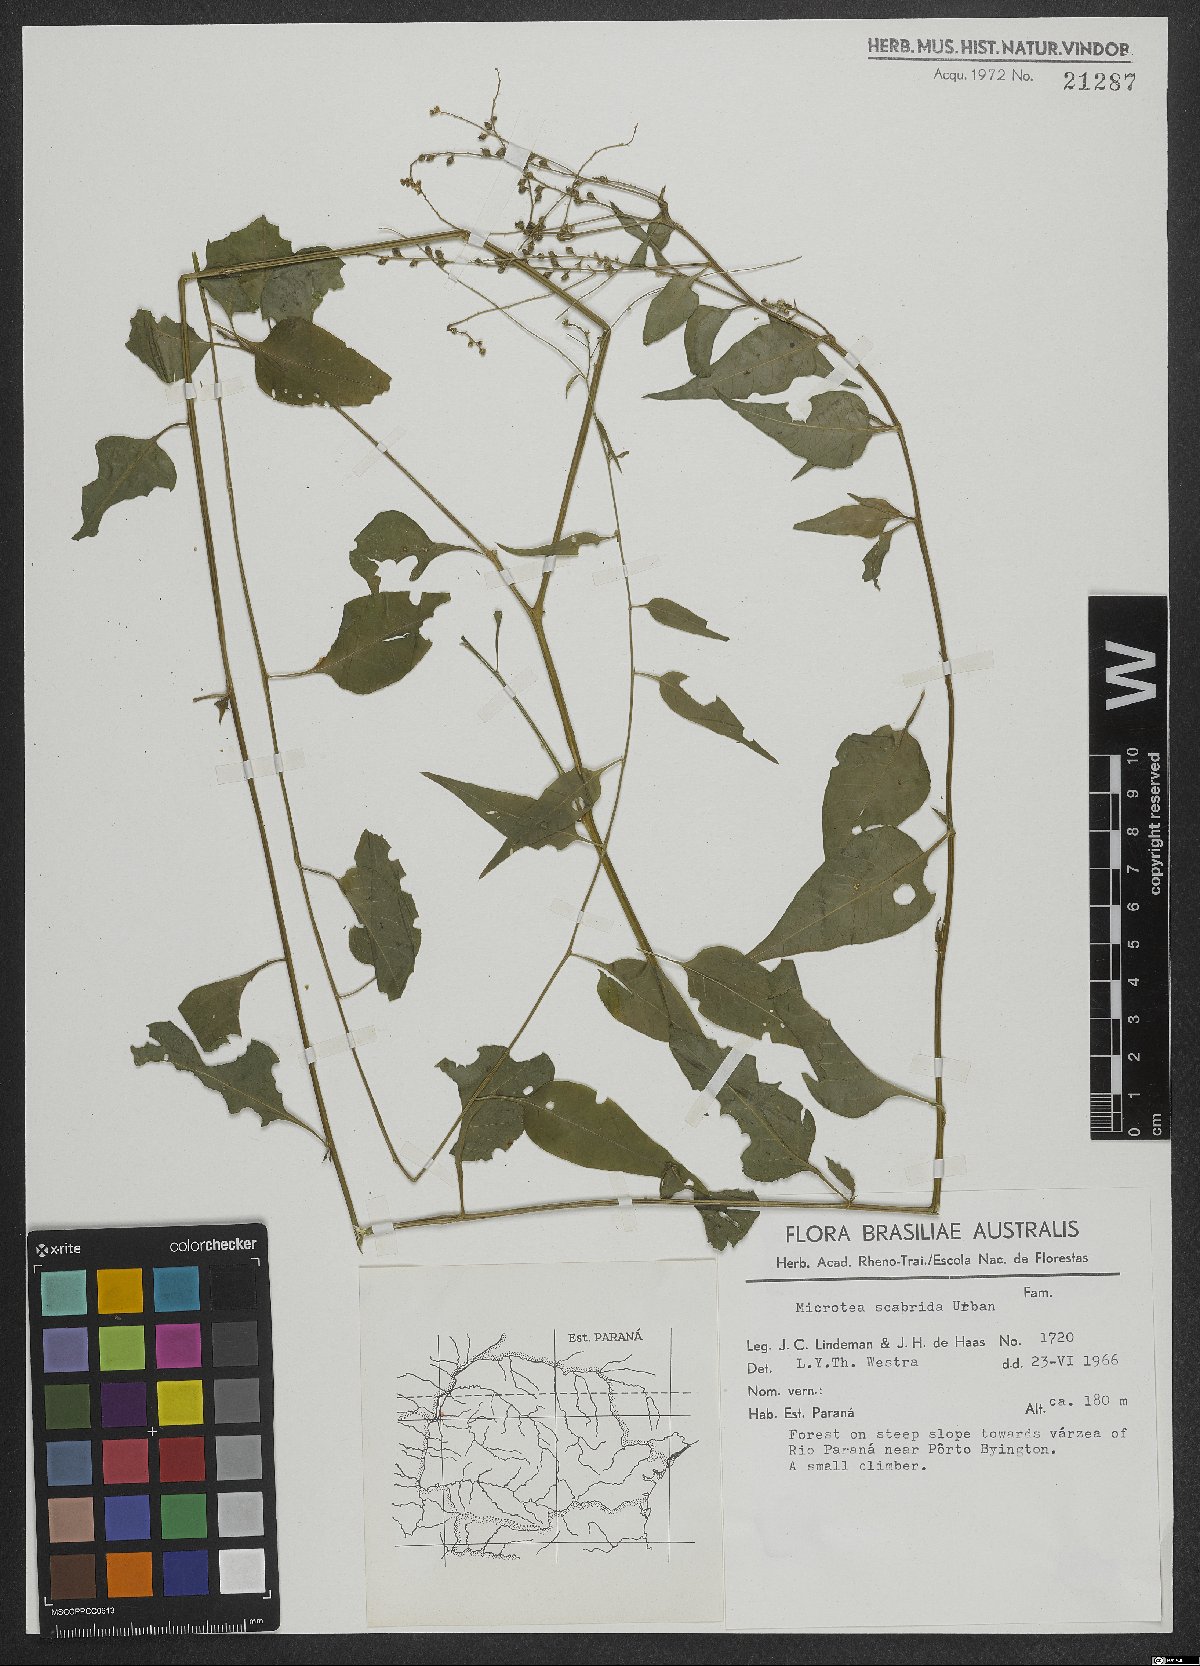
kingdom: Plantae
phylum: Tracheophyta
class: Magnoliopsida
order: Caryophyllales
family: Microteaceae
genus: Microtea
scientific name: Microtea scabrida
